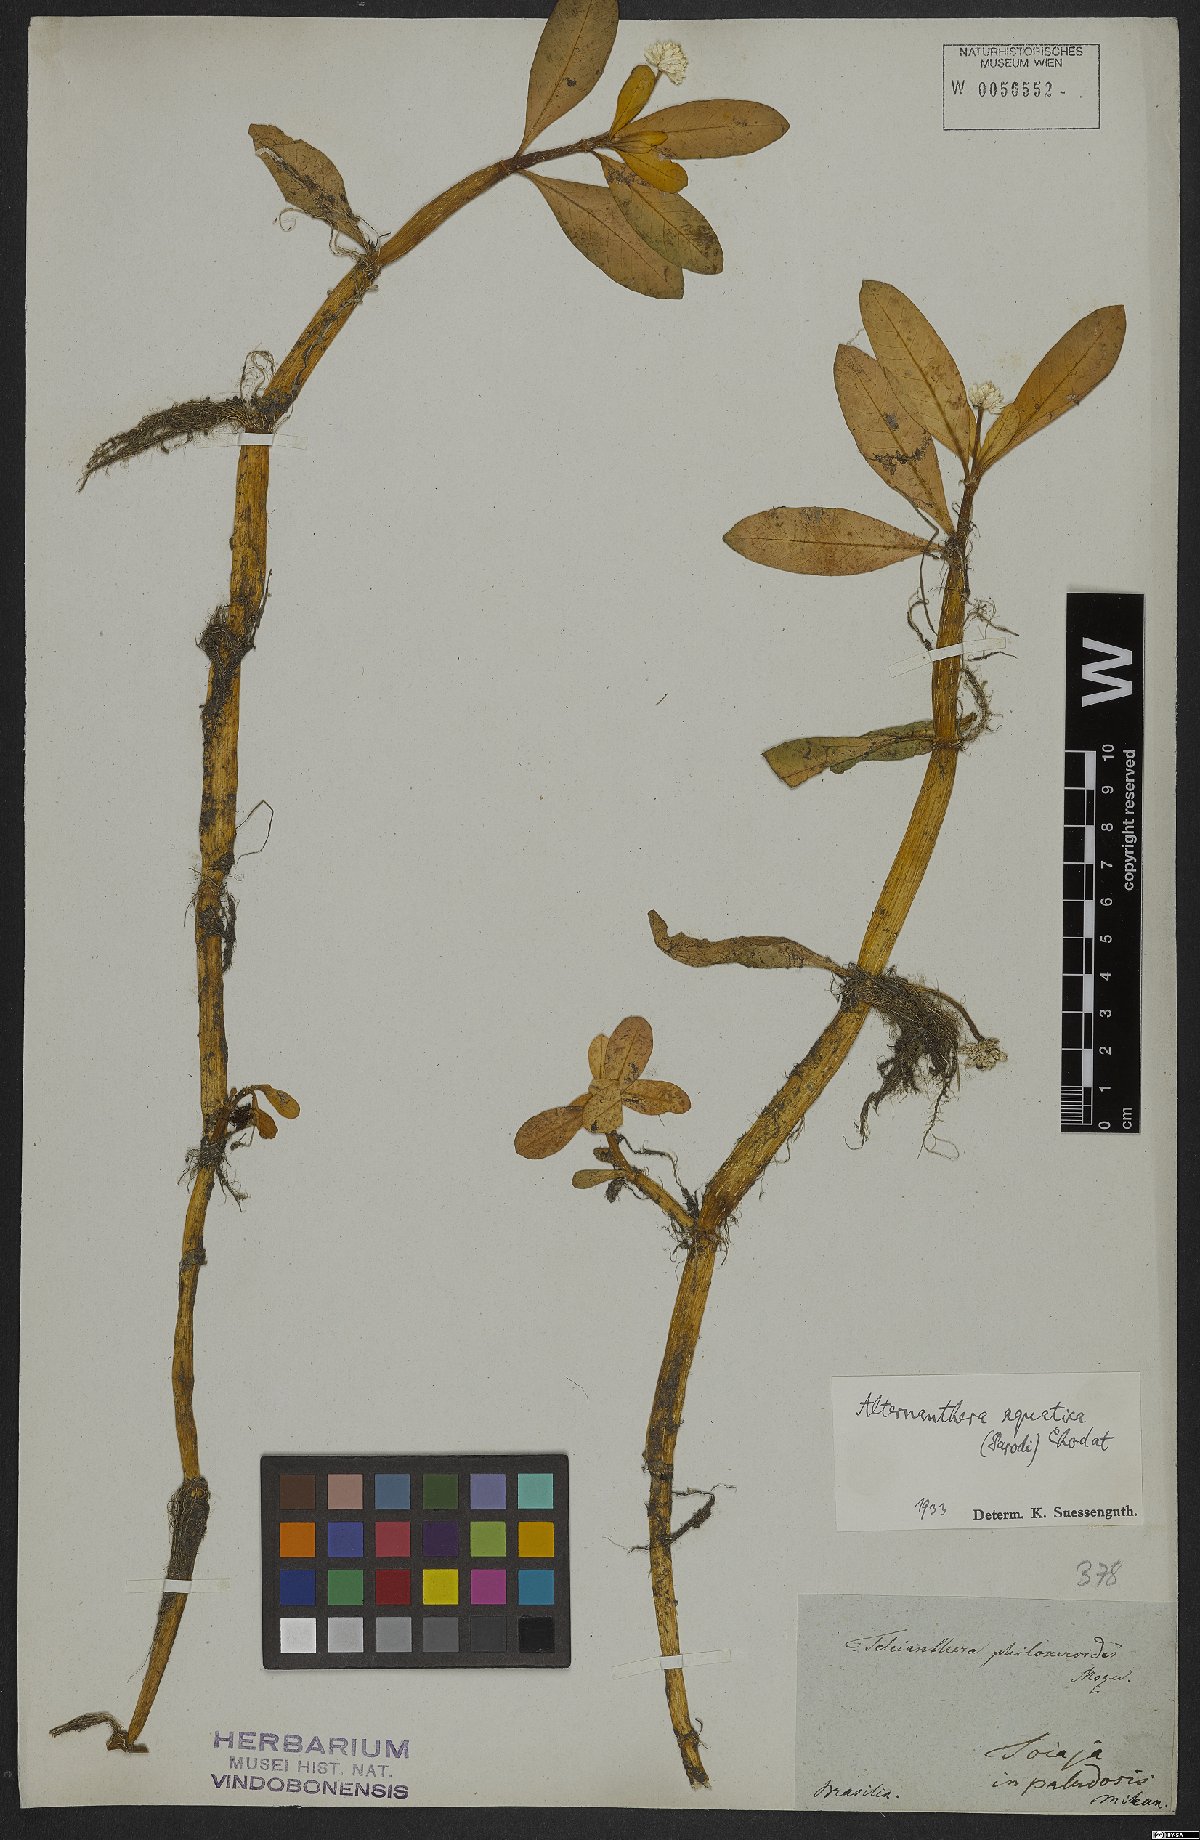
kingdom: Plantae
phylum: Tracheophyta
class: Magnoliopsida
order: Caryophyllales
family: Amaranthaceae
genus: Alternanthera
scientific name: Alternanthera aquatica
